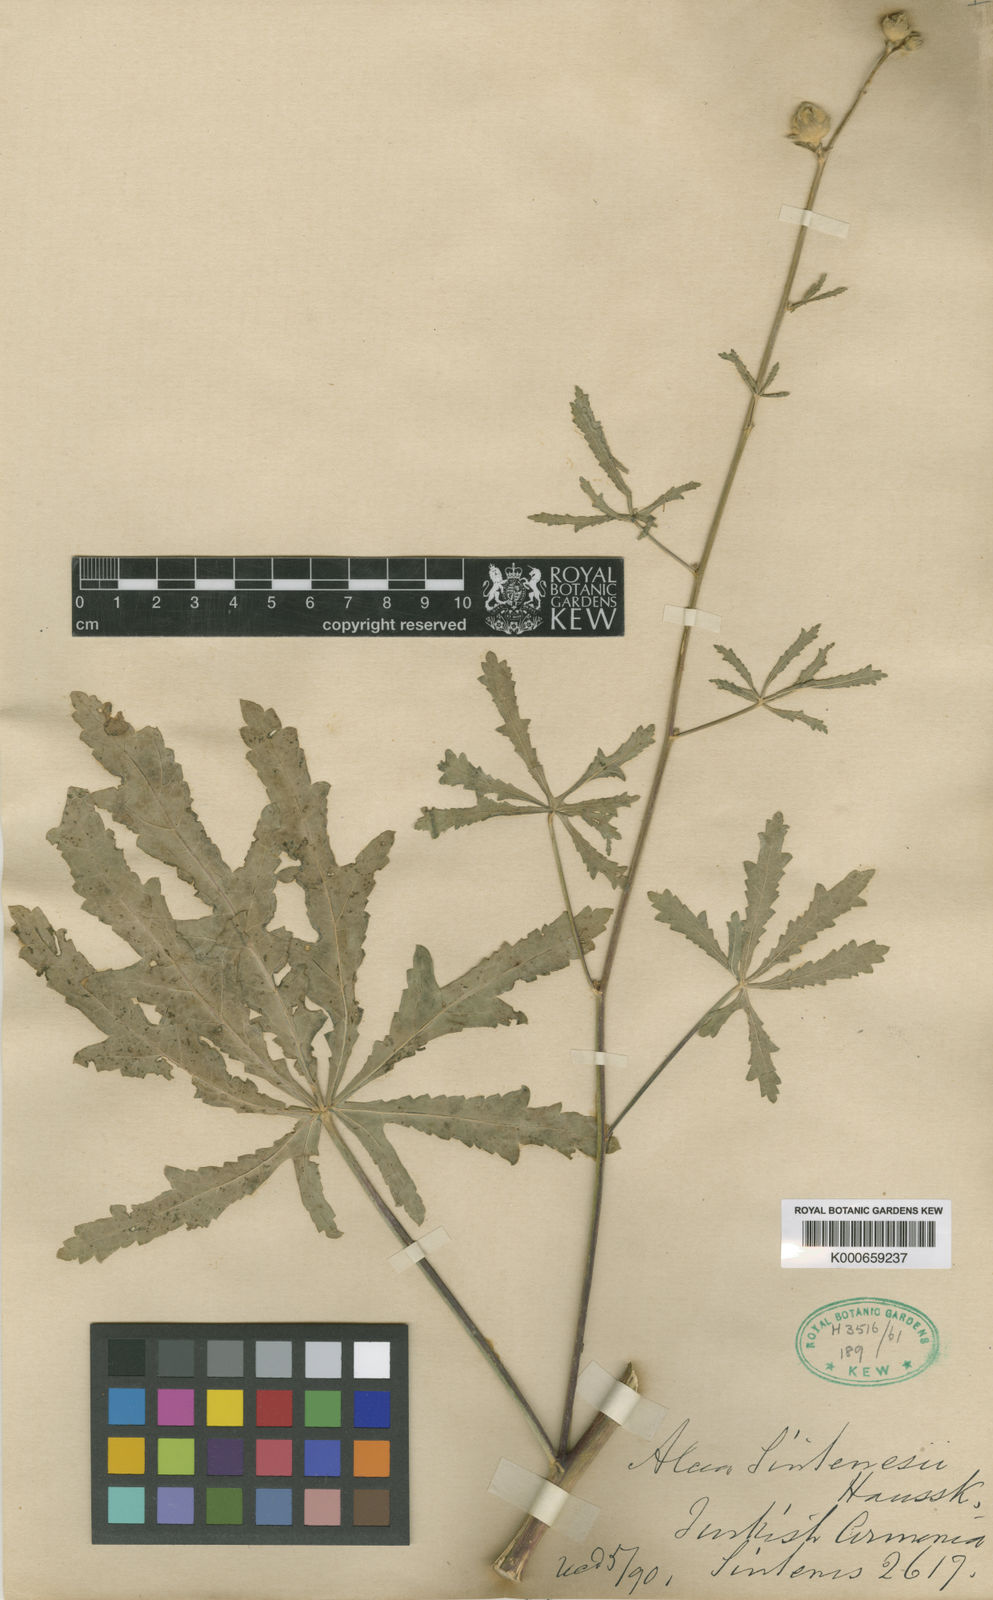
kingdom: Plantae
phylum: Tracheophyta
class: Magnoliopsida
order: Malvales
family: Malvaceae
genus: Althaea
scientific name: Althaea sintenisii
